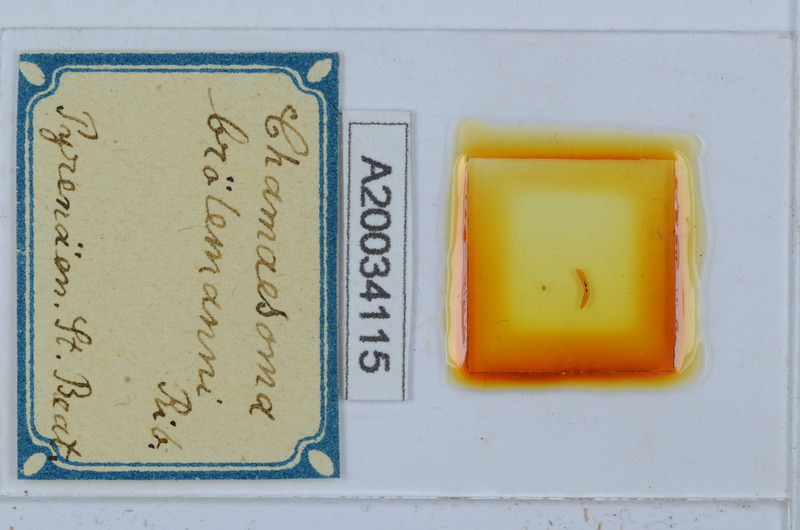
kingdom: Animalia
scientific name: Animalia
